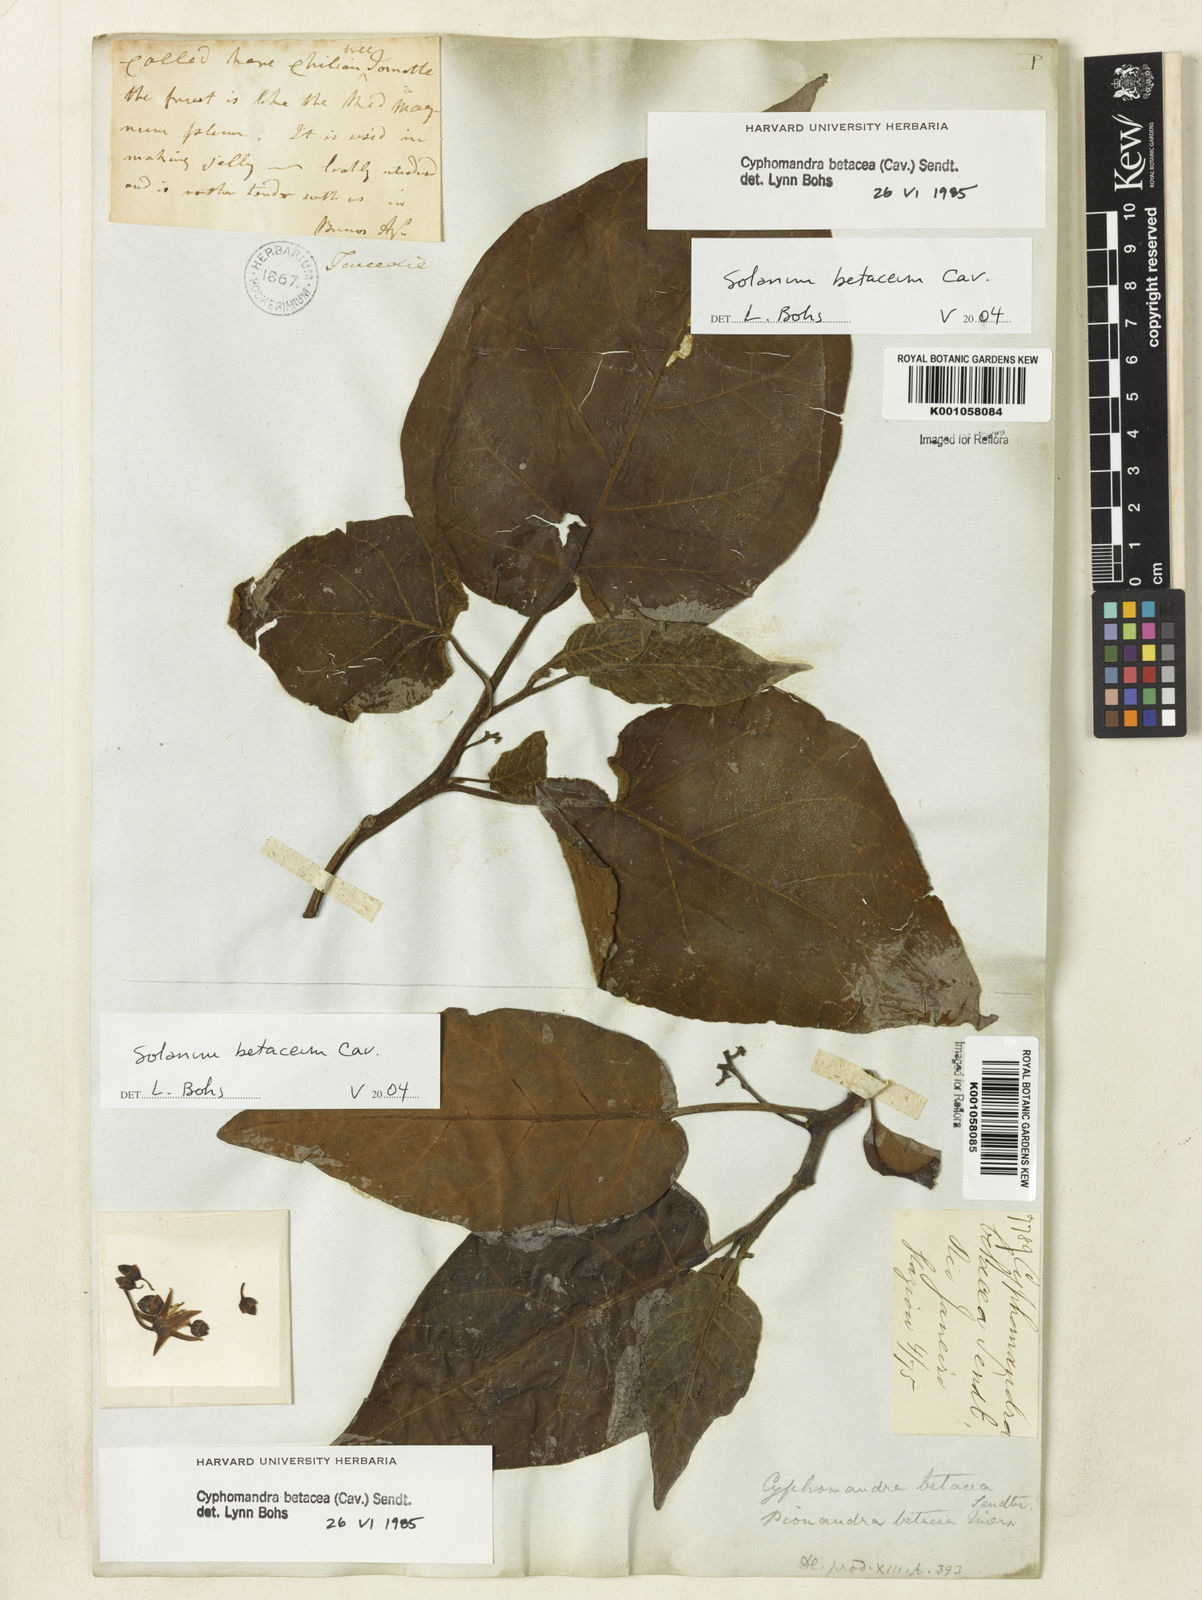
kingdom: Plantae
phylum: Tracheophyta
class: Magnoliopsida
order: Solanales
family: Solanaceae
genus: Solanum
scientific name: Solanum betaceum
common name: Tamarillo
